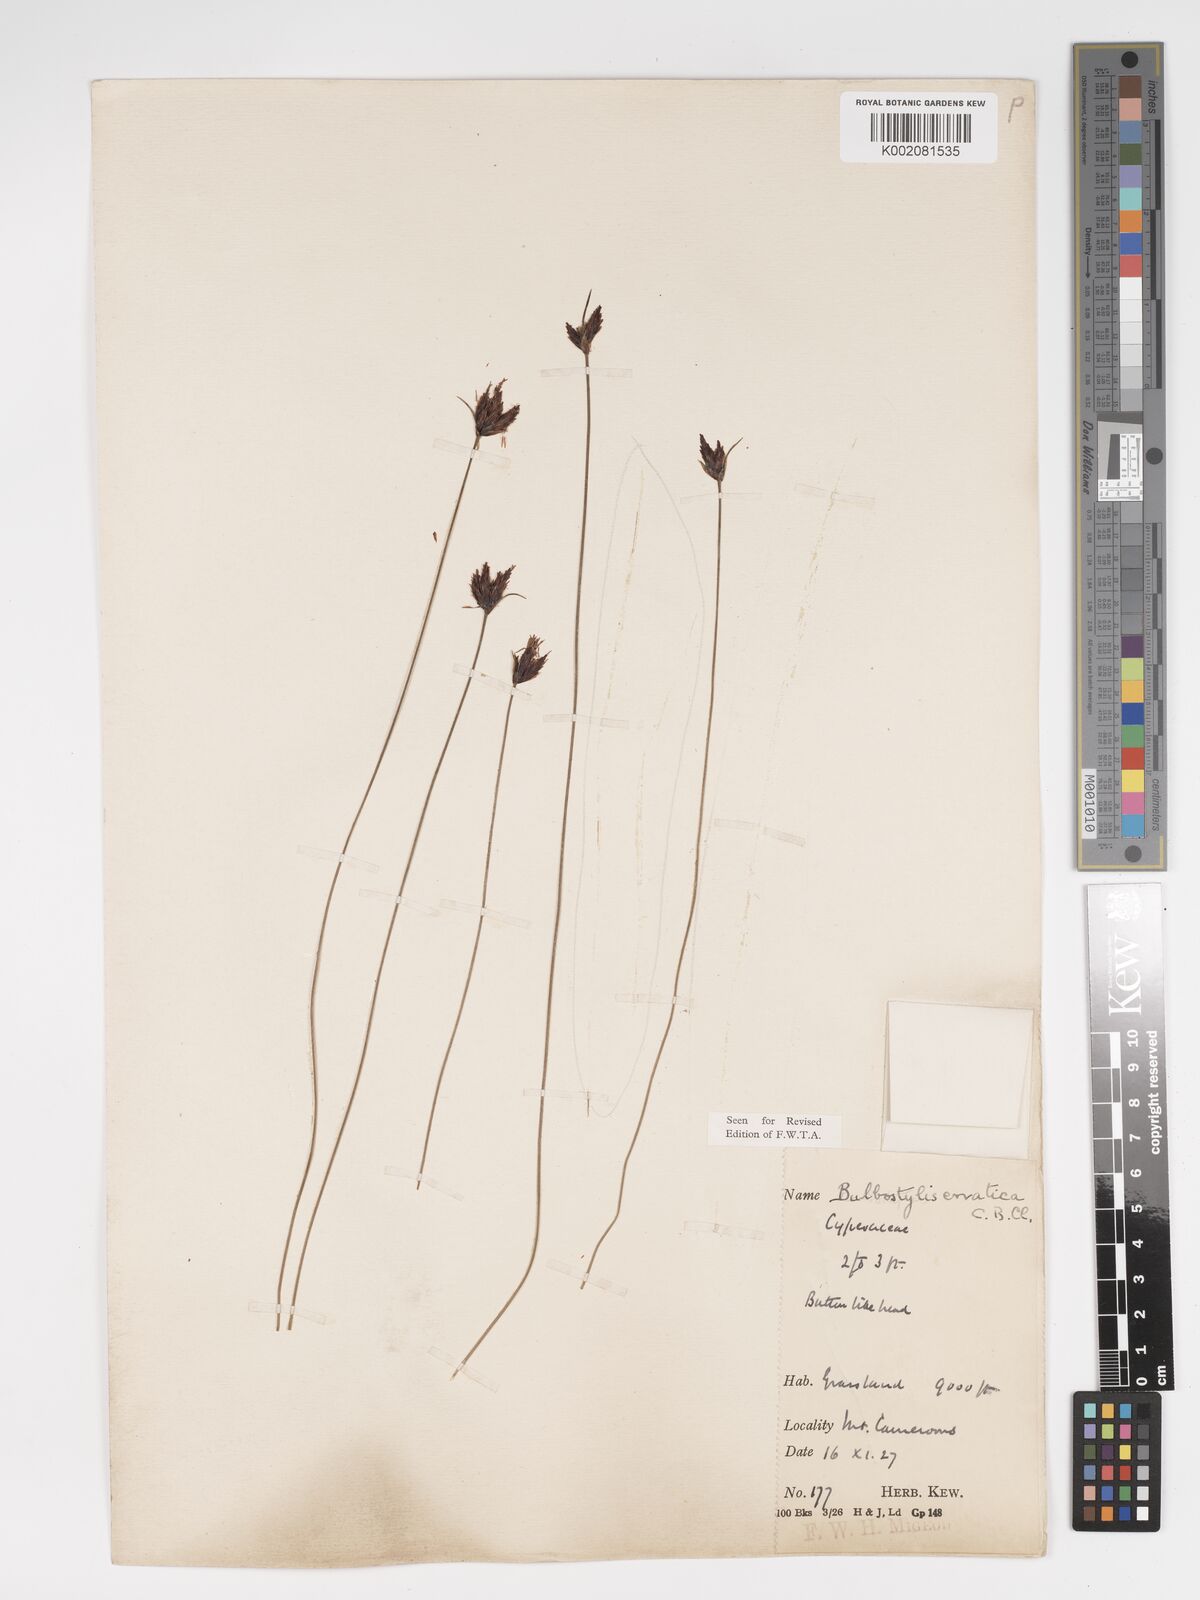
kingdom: Plantae
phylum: Tracheophyta
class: Liliopsida
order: Poales
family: Cyperaceae
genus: Bulbostylis
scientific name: Bulbostylis schoenoides
